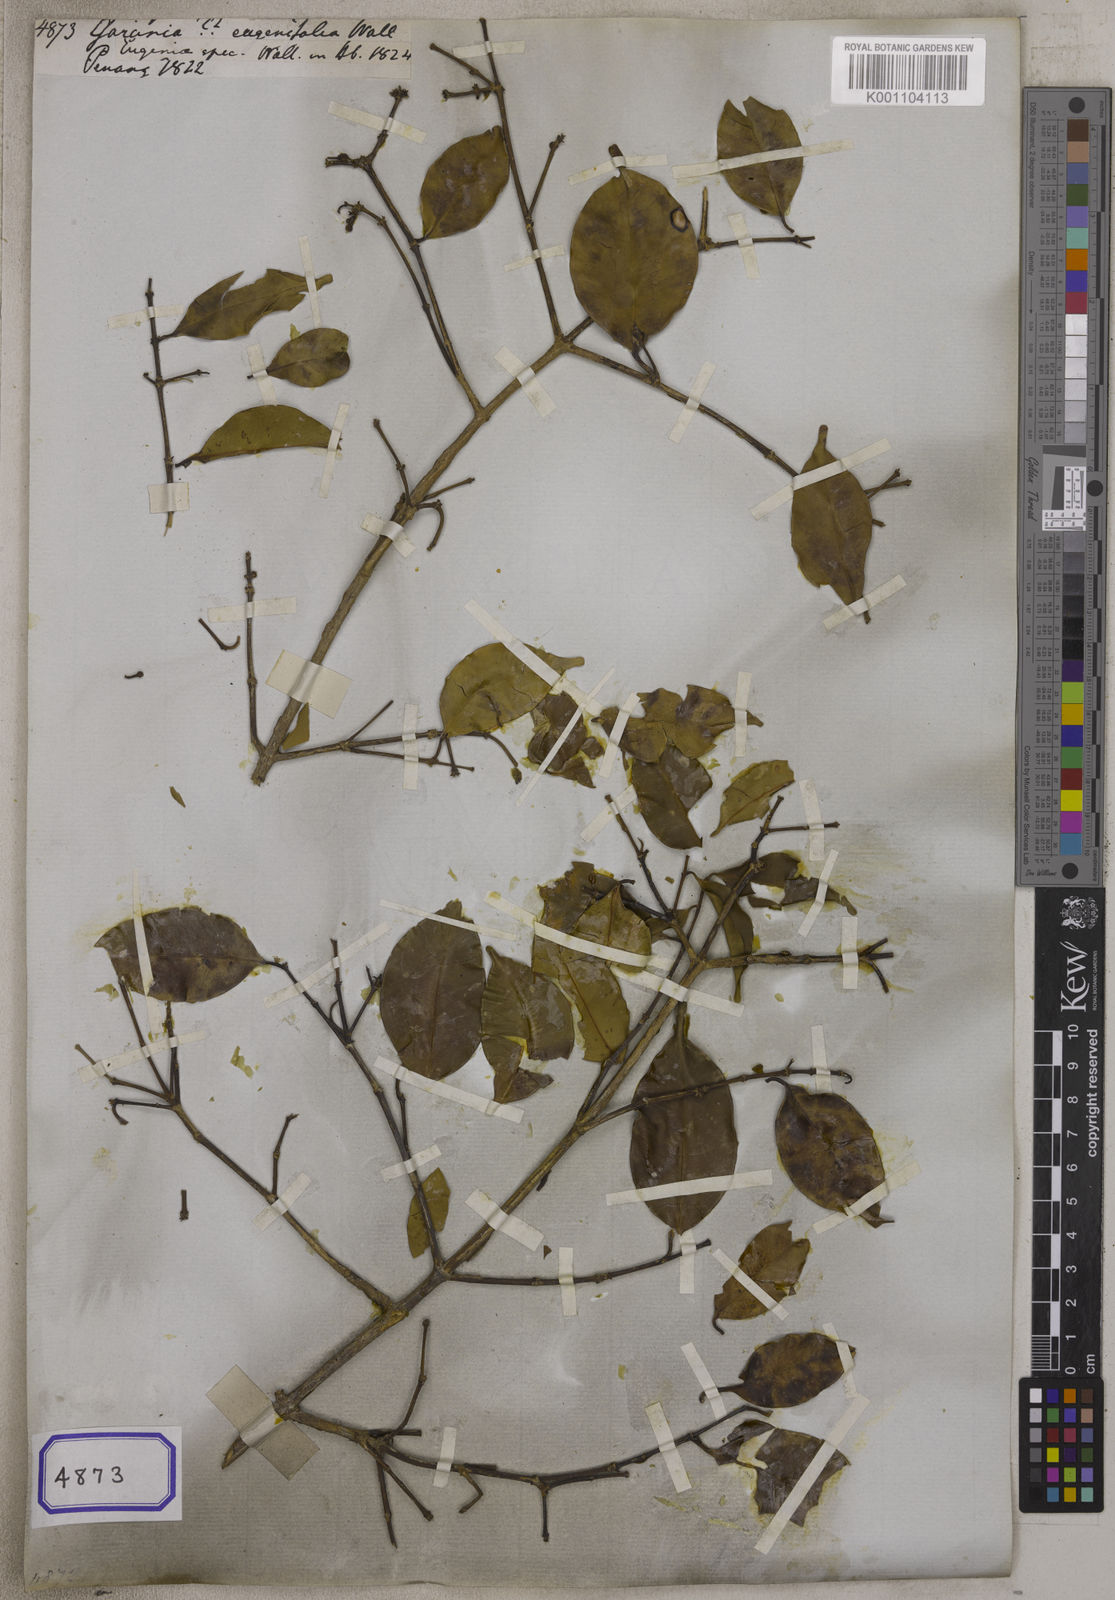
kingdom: Plantae
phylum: Tracheophyta
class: Magnoliopsida
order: Malpighiales
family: Clusiaceae
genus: Garcinia
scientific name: Garcinia
